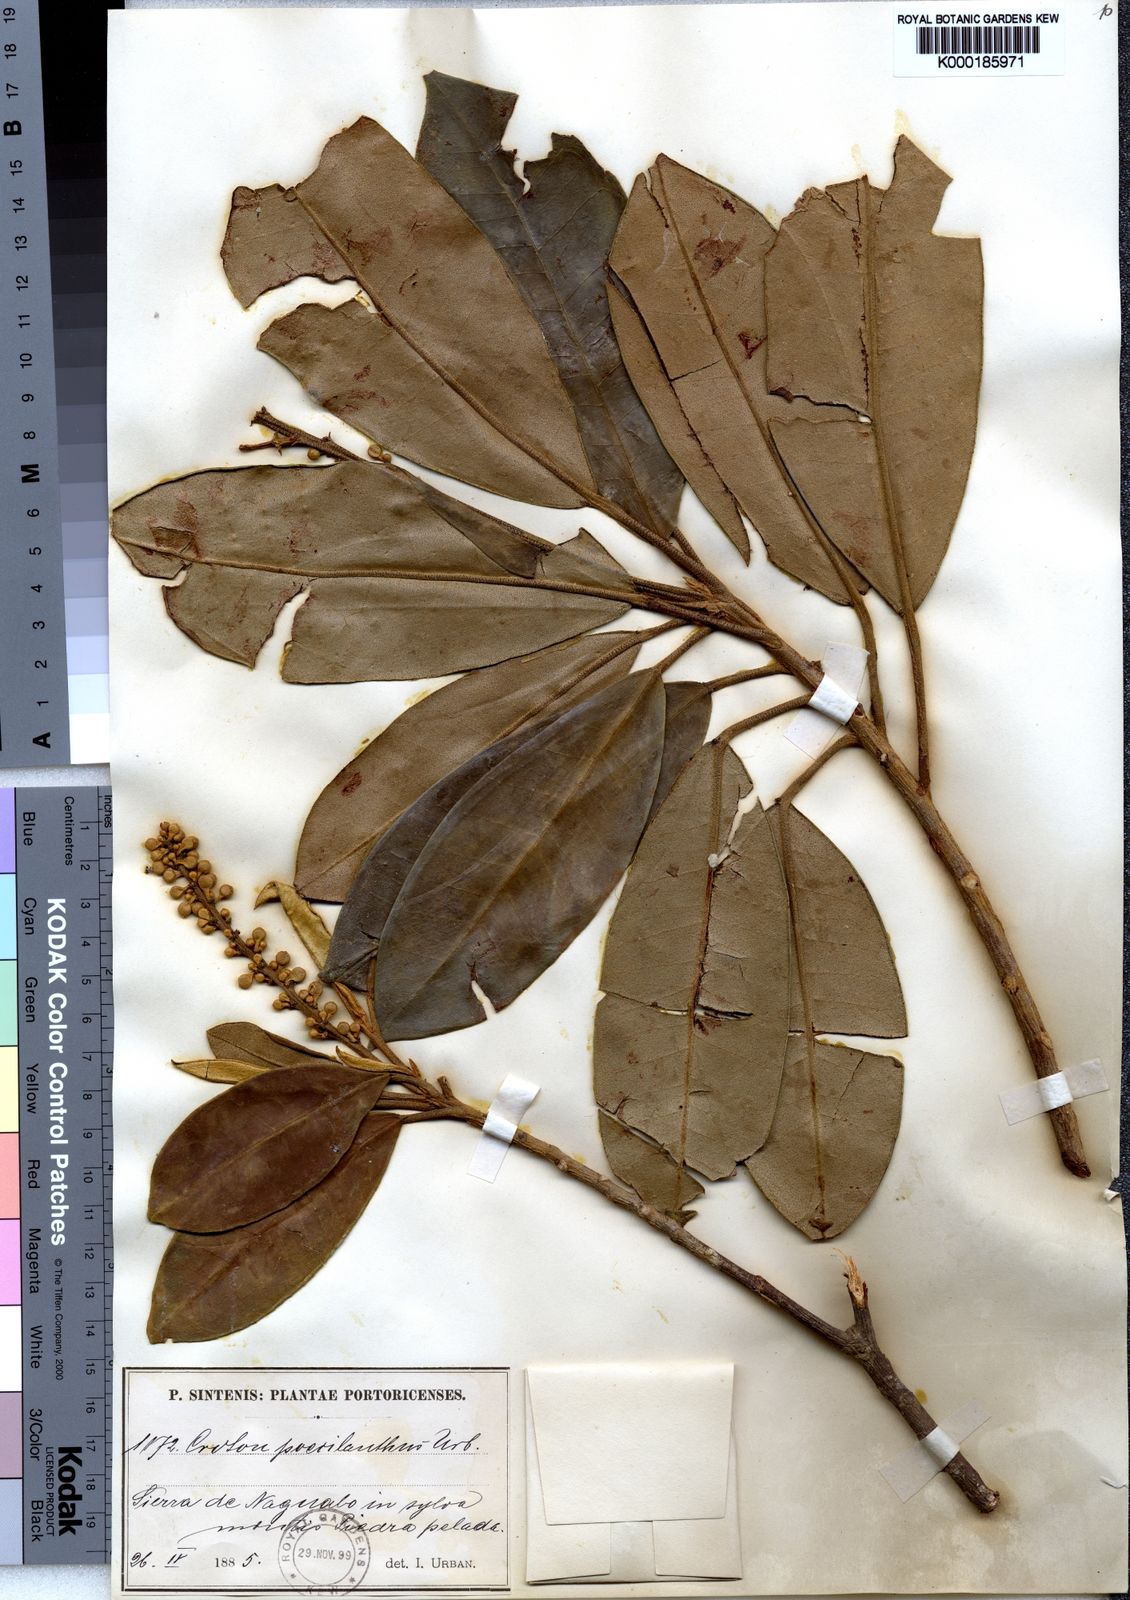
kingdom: Plantae
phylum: Tracheophyta
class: Magnoliopsida
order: Malpighiales
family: Euphorbiaceae
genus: Croton
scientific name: Croton poecilanthus
